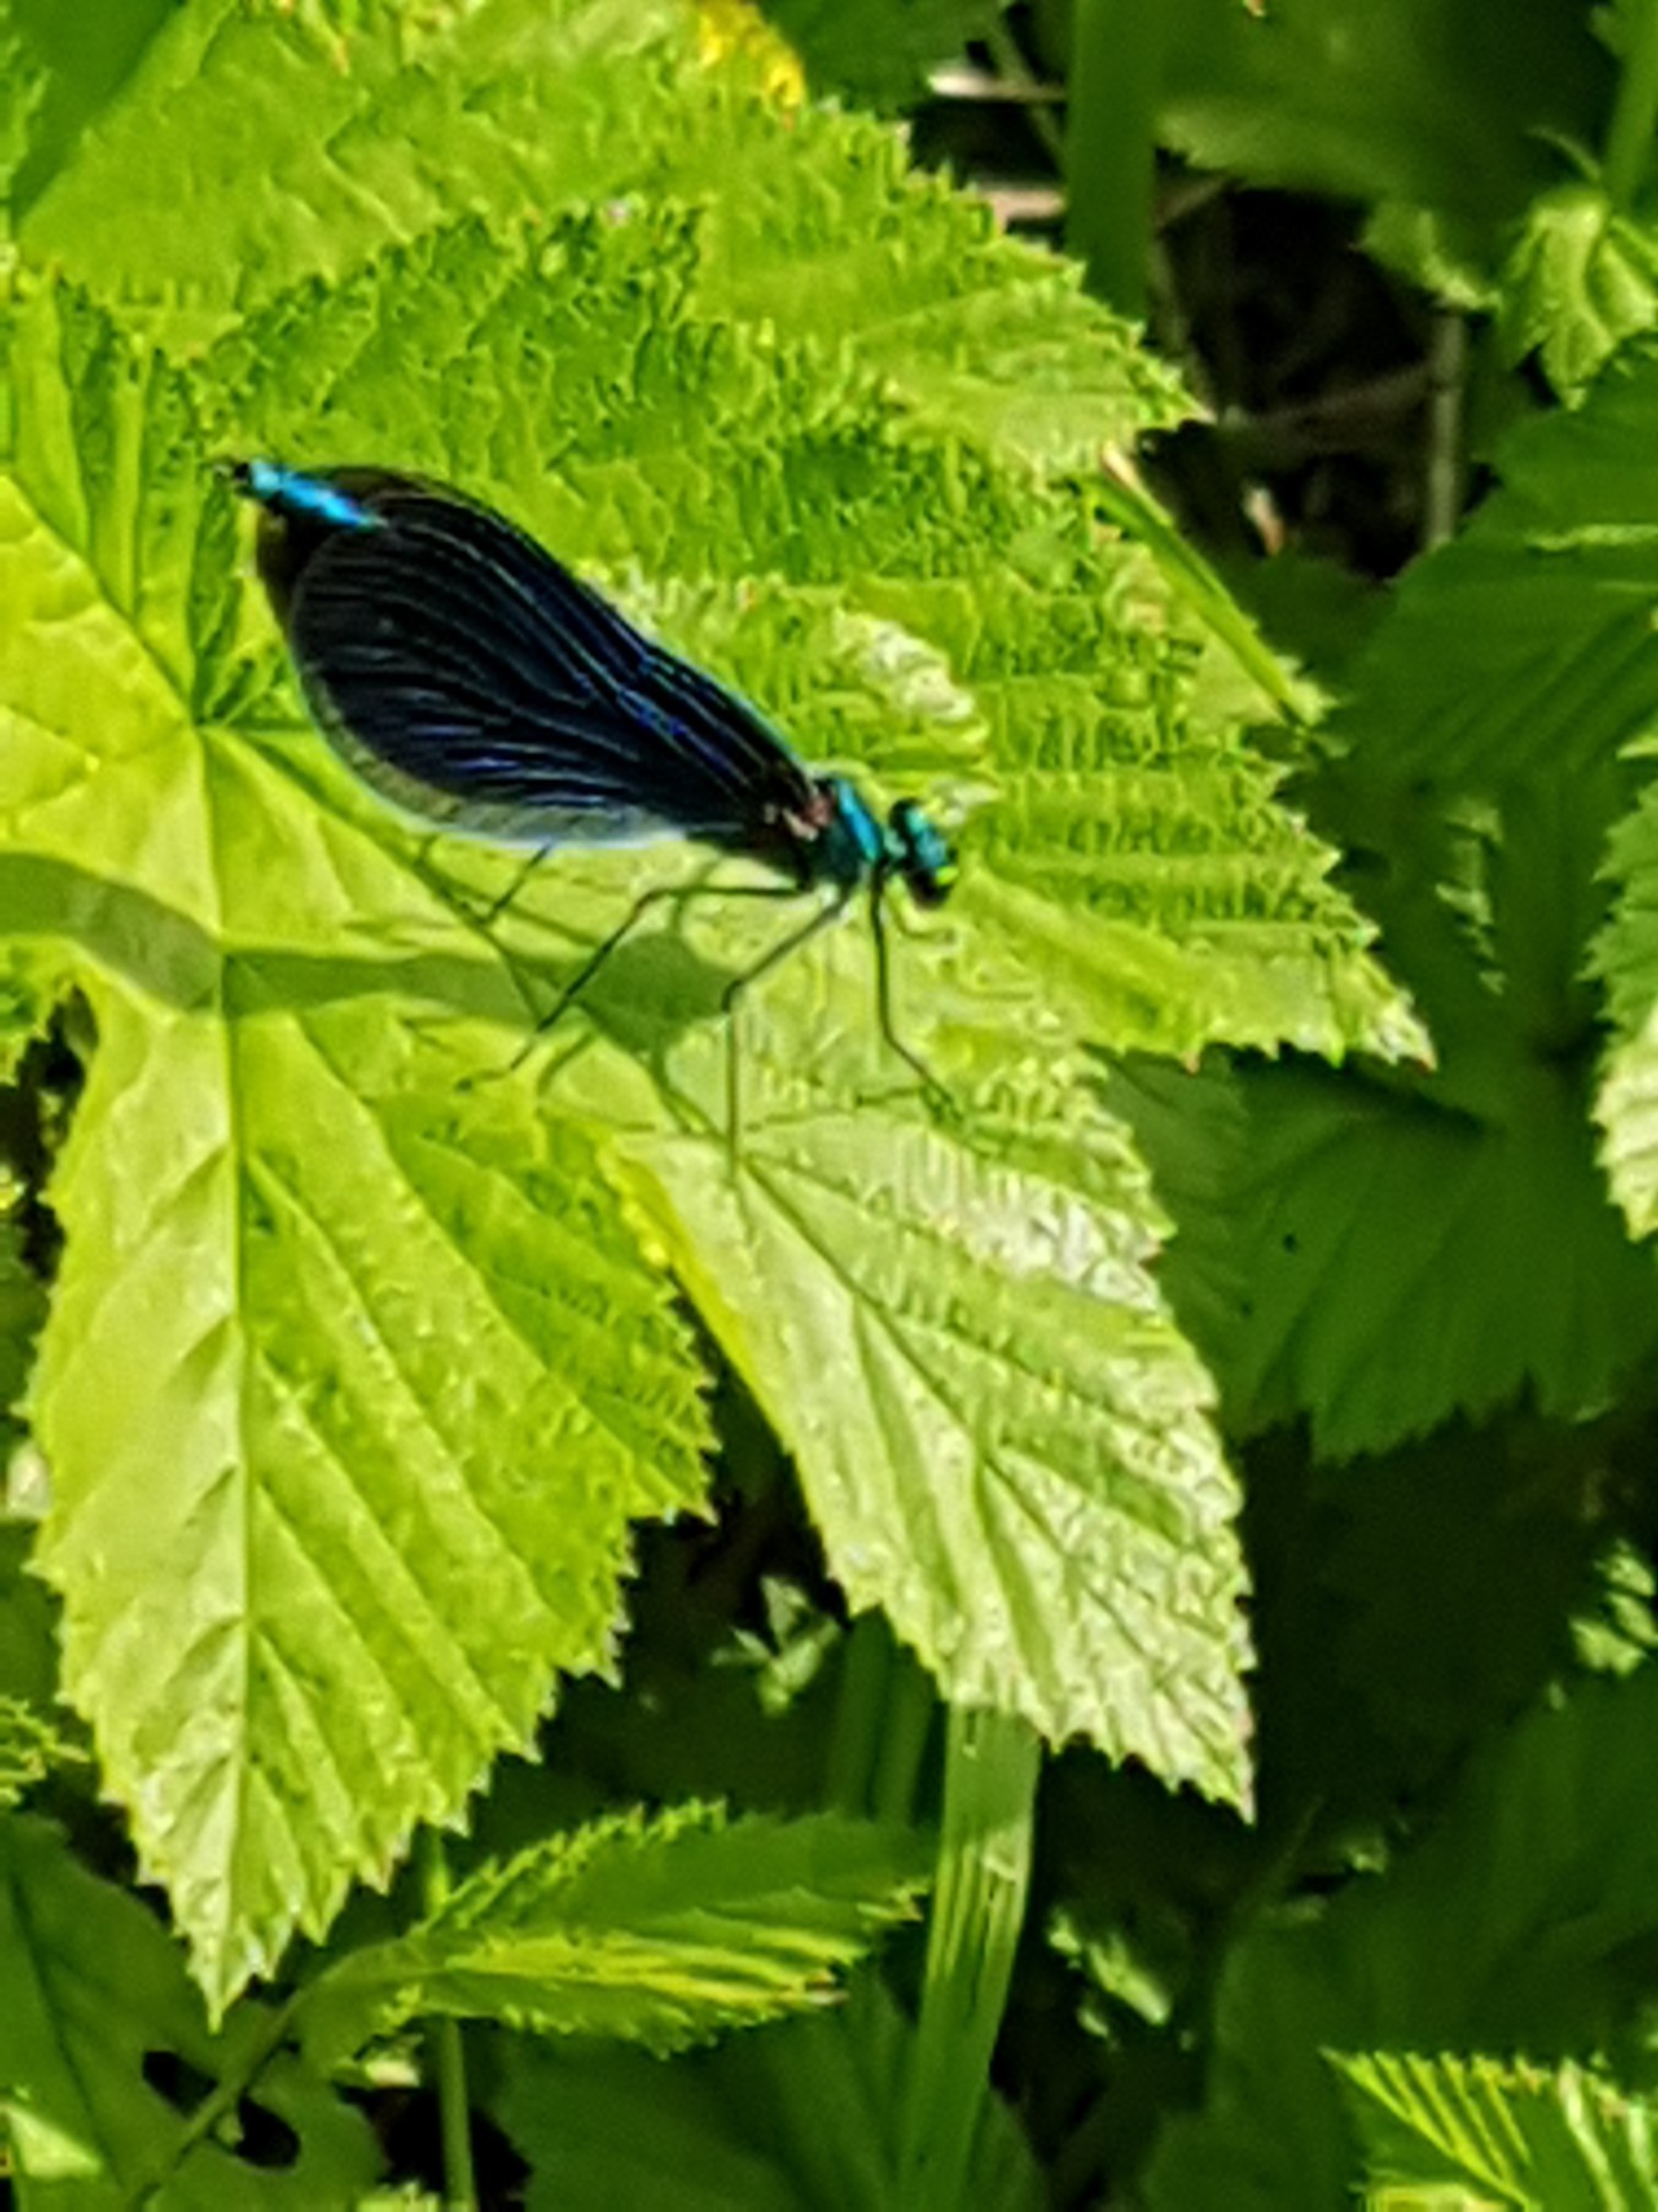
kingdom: Animalia
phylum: Arthropoda
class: Insecta
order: Odonata
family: Calopterygidae
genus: Calopteryx
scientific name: Calopteryx virgo
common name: Blåvinget pragtvandnymfe
